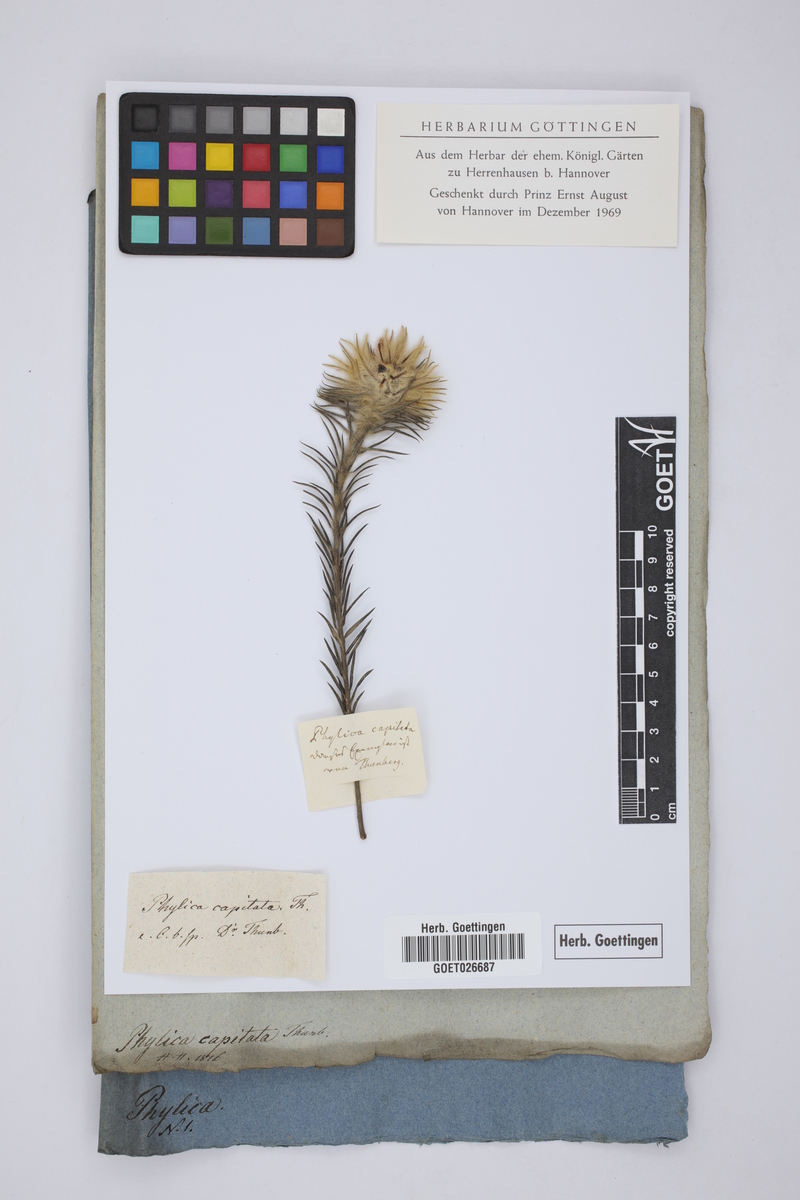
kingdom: Plantae
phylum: Tracheophyta
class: Magnoliopsida
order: Rosales
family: Rhamnaceae
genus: Phylica
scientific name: Phylica pubescens
